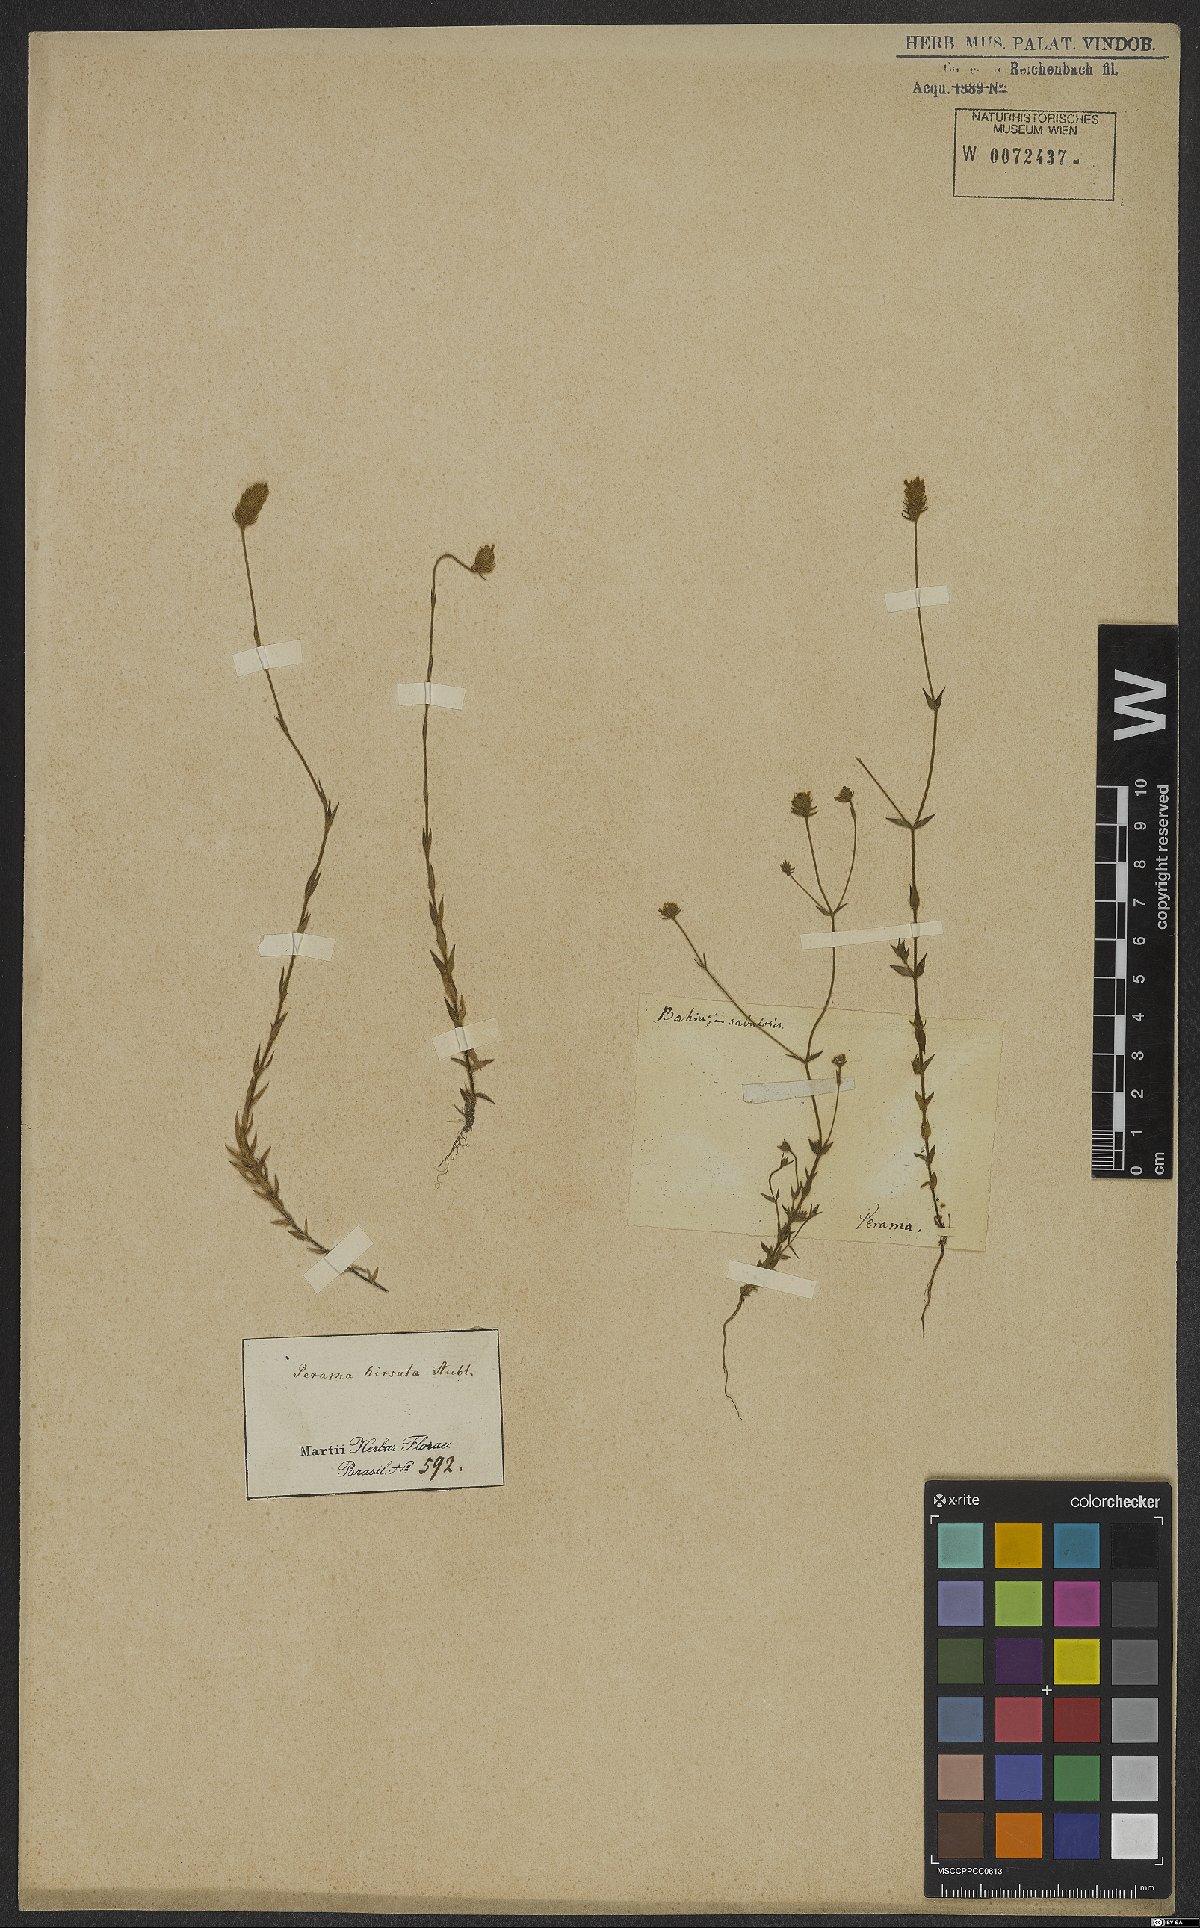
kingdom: Plantae
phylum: Tracheophyta
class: Magnoliopsida
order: Gentianales
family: Rubiaceae
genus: Perama
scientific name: Perama hirsuta
